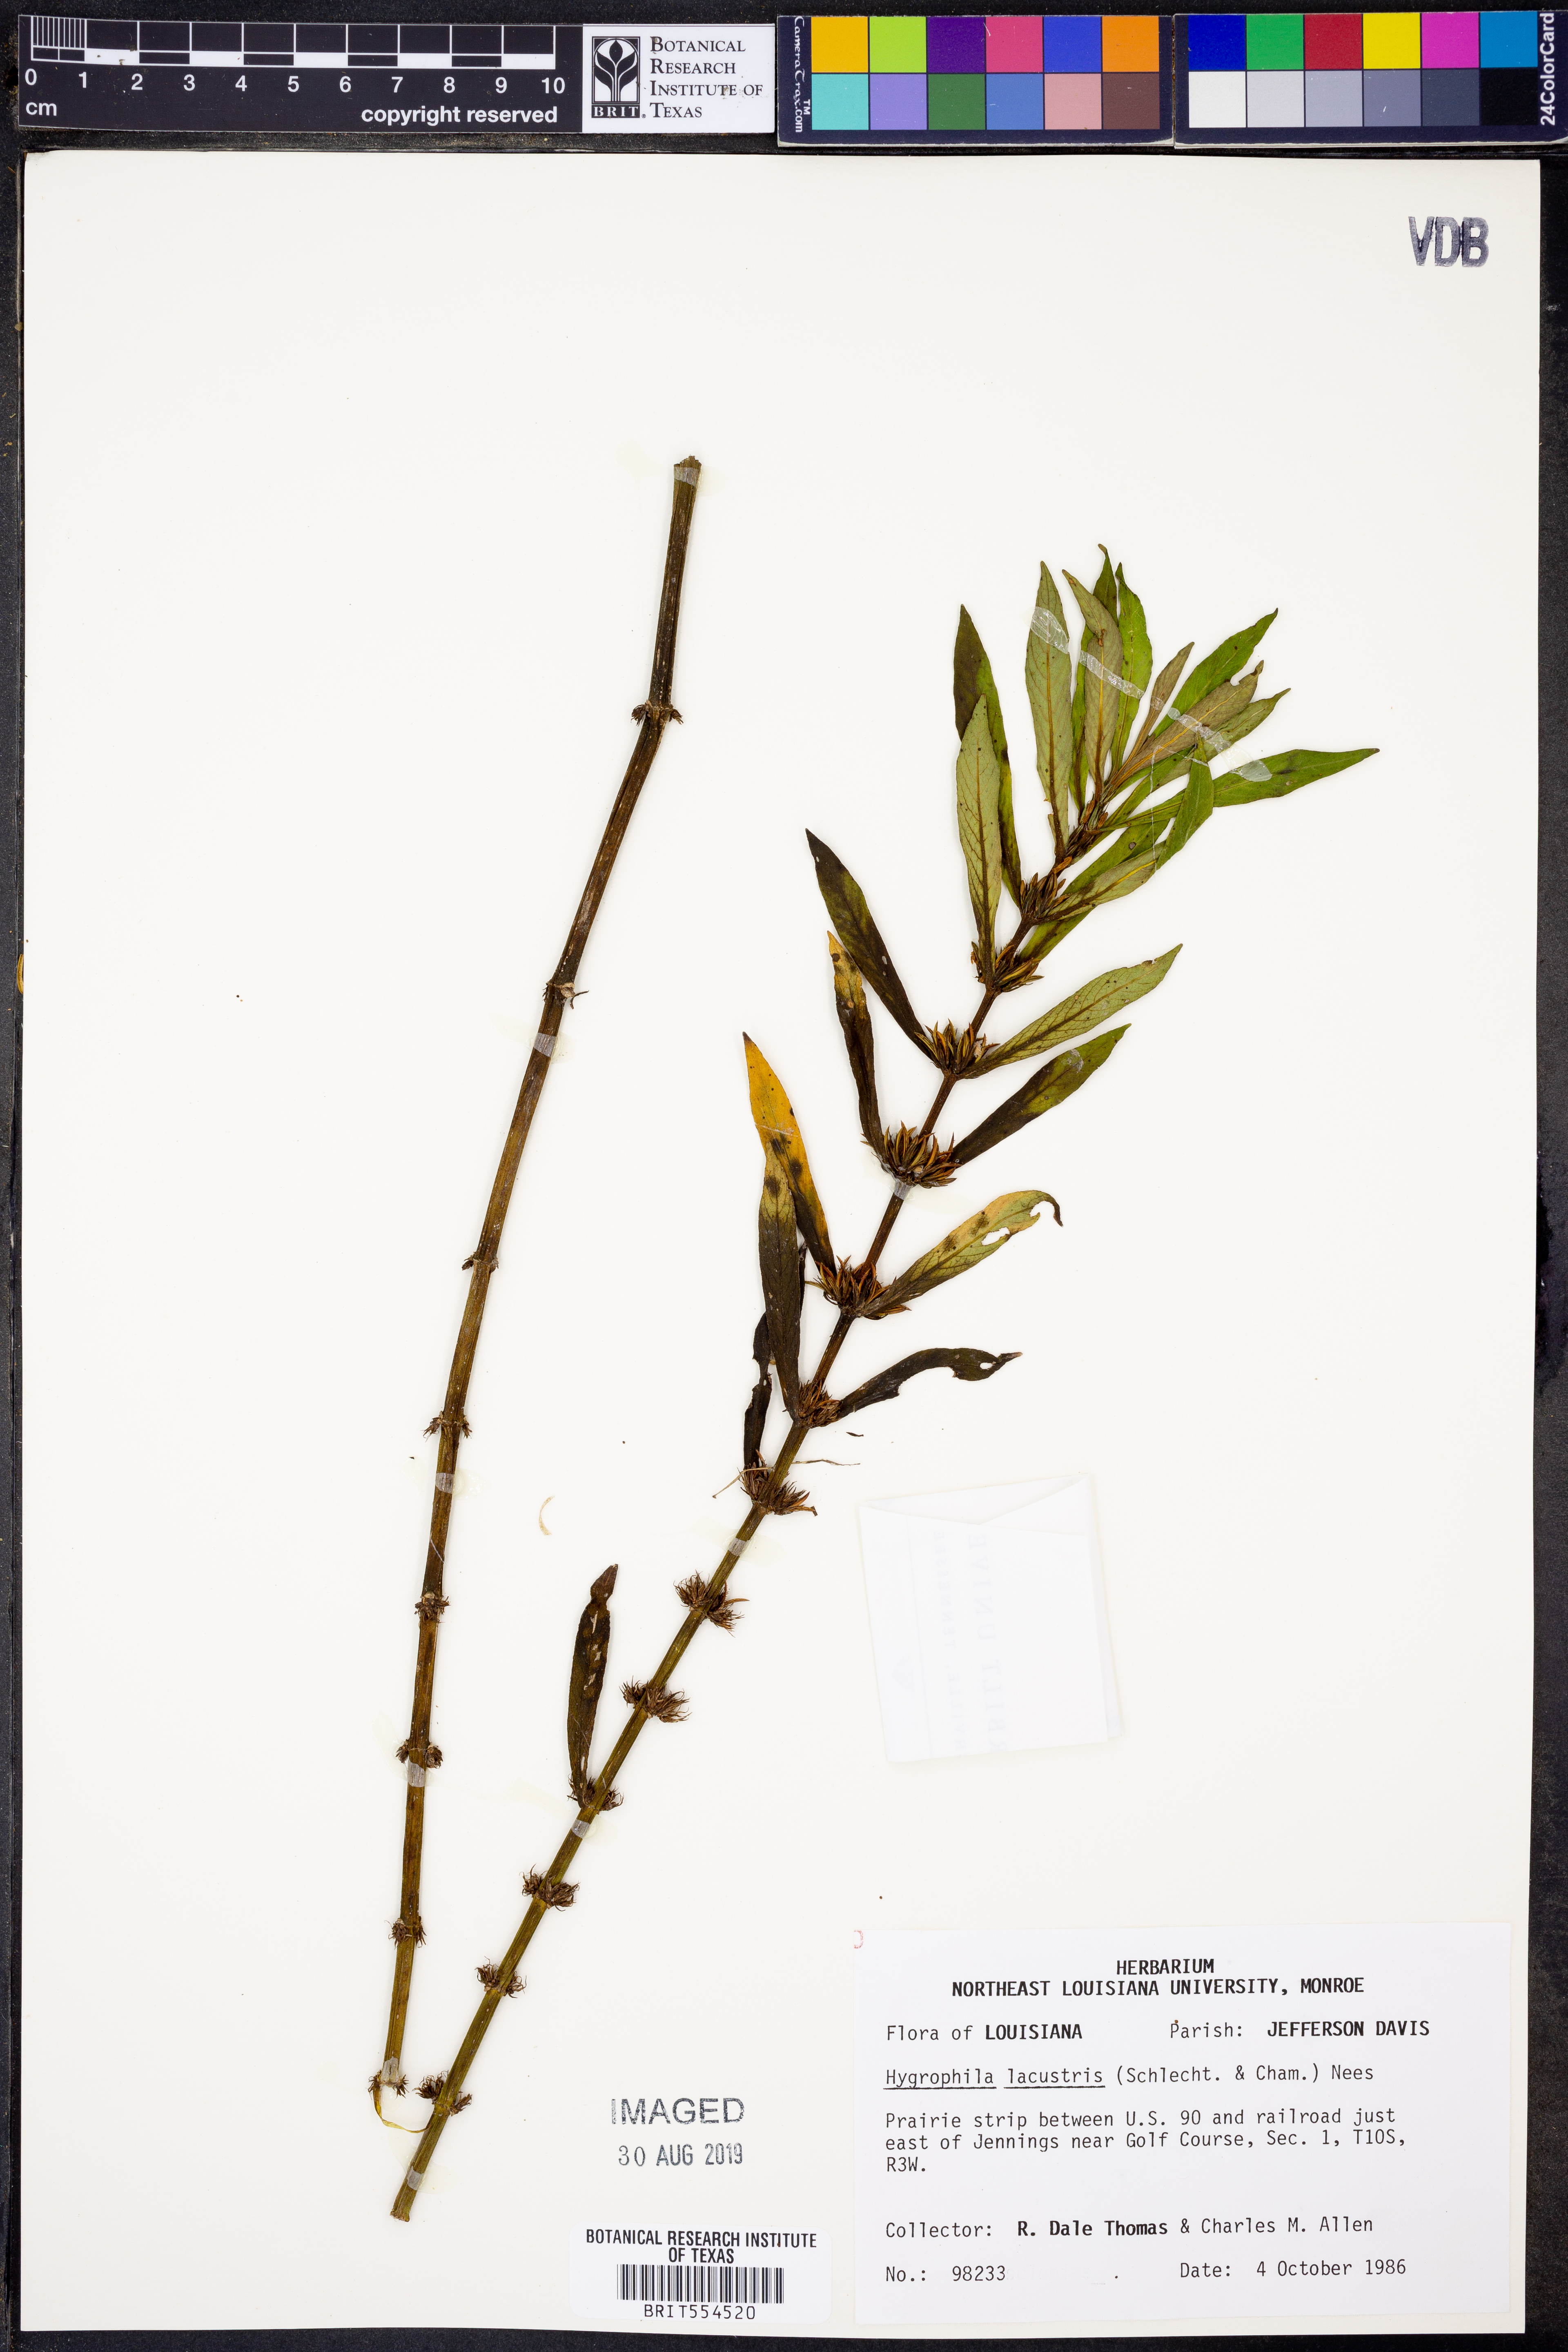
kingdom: Plantae
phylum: Tracheophyta
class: Magnoliopsida
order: Lamiales
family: Acanthaceae
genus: Hygrophila
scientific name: Hygrophila costata
